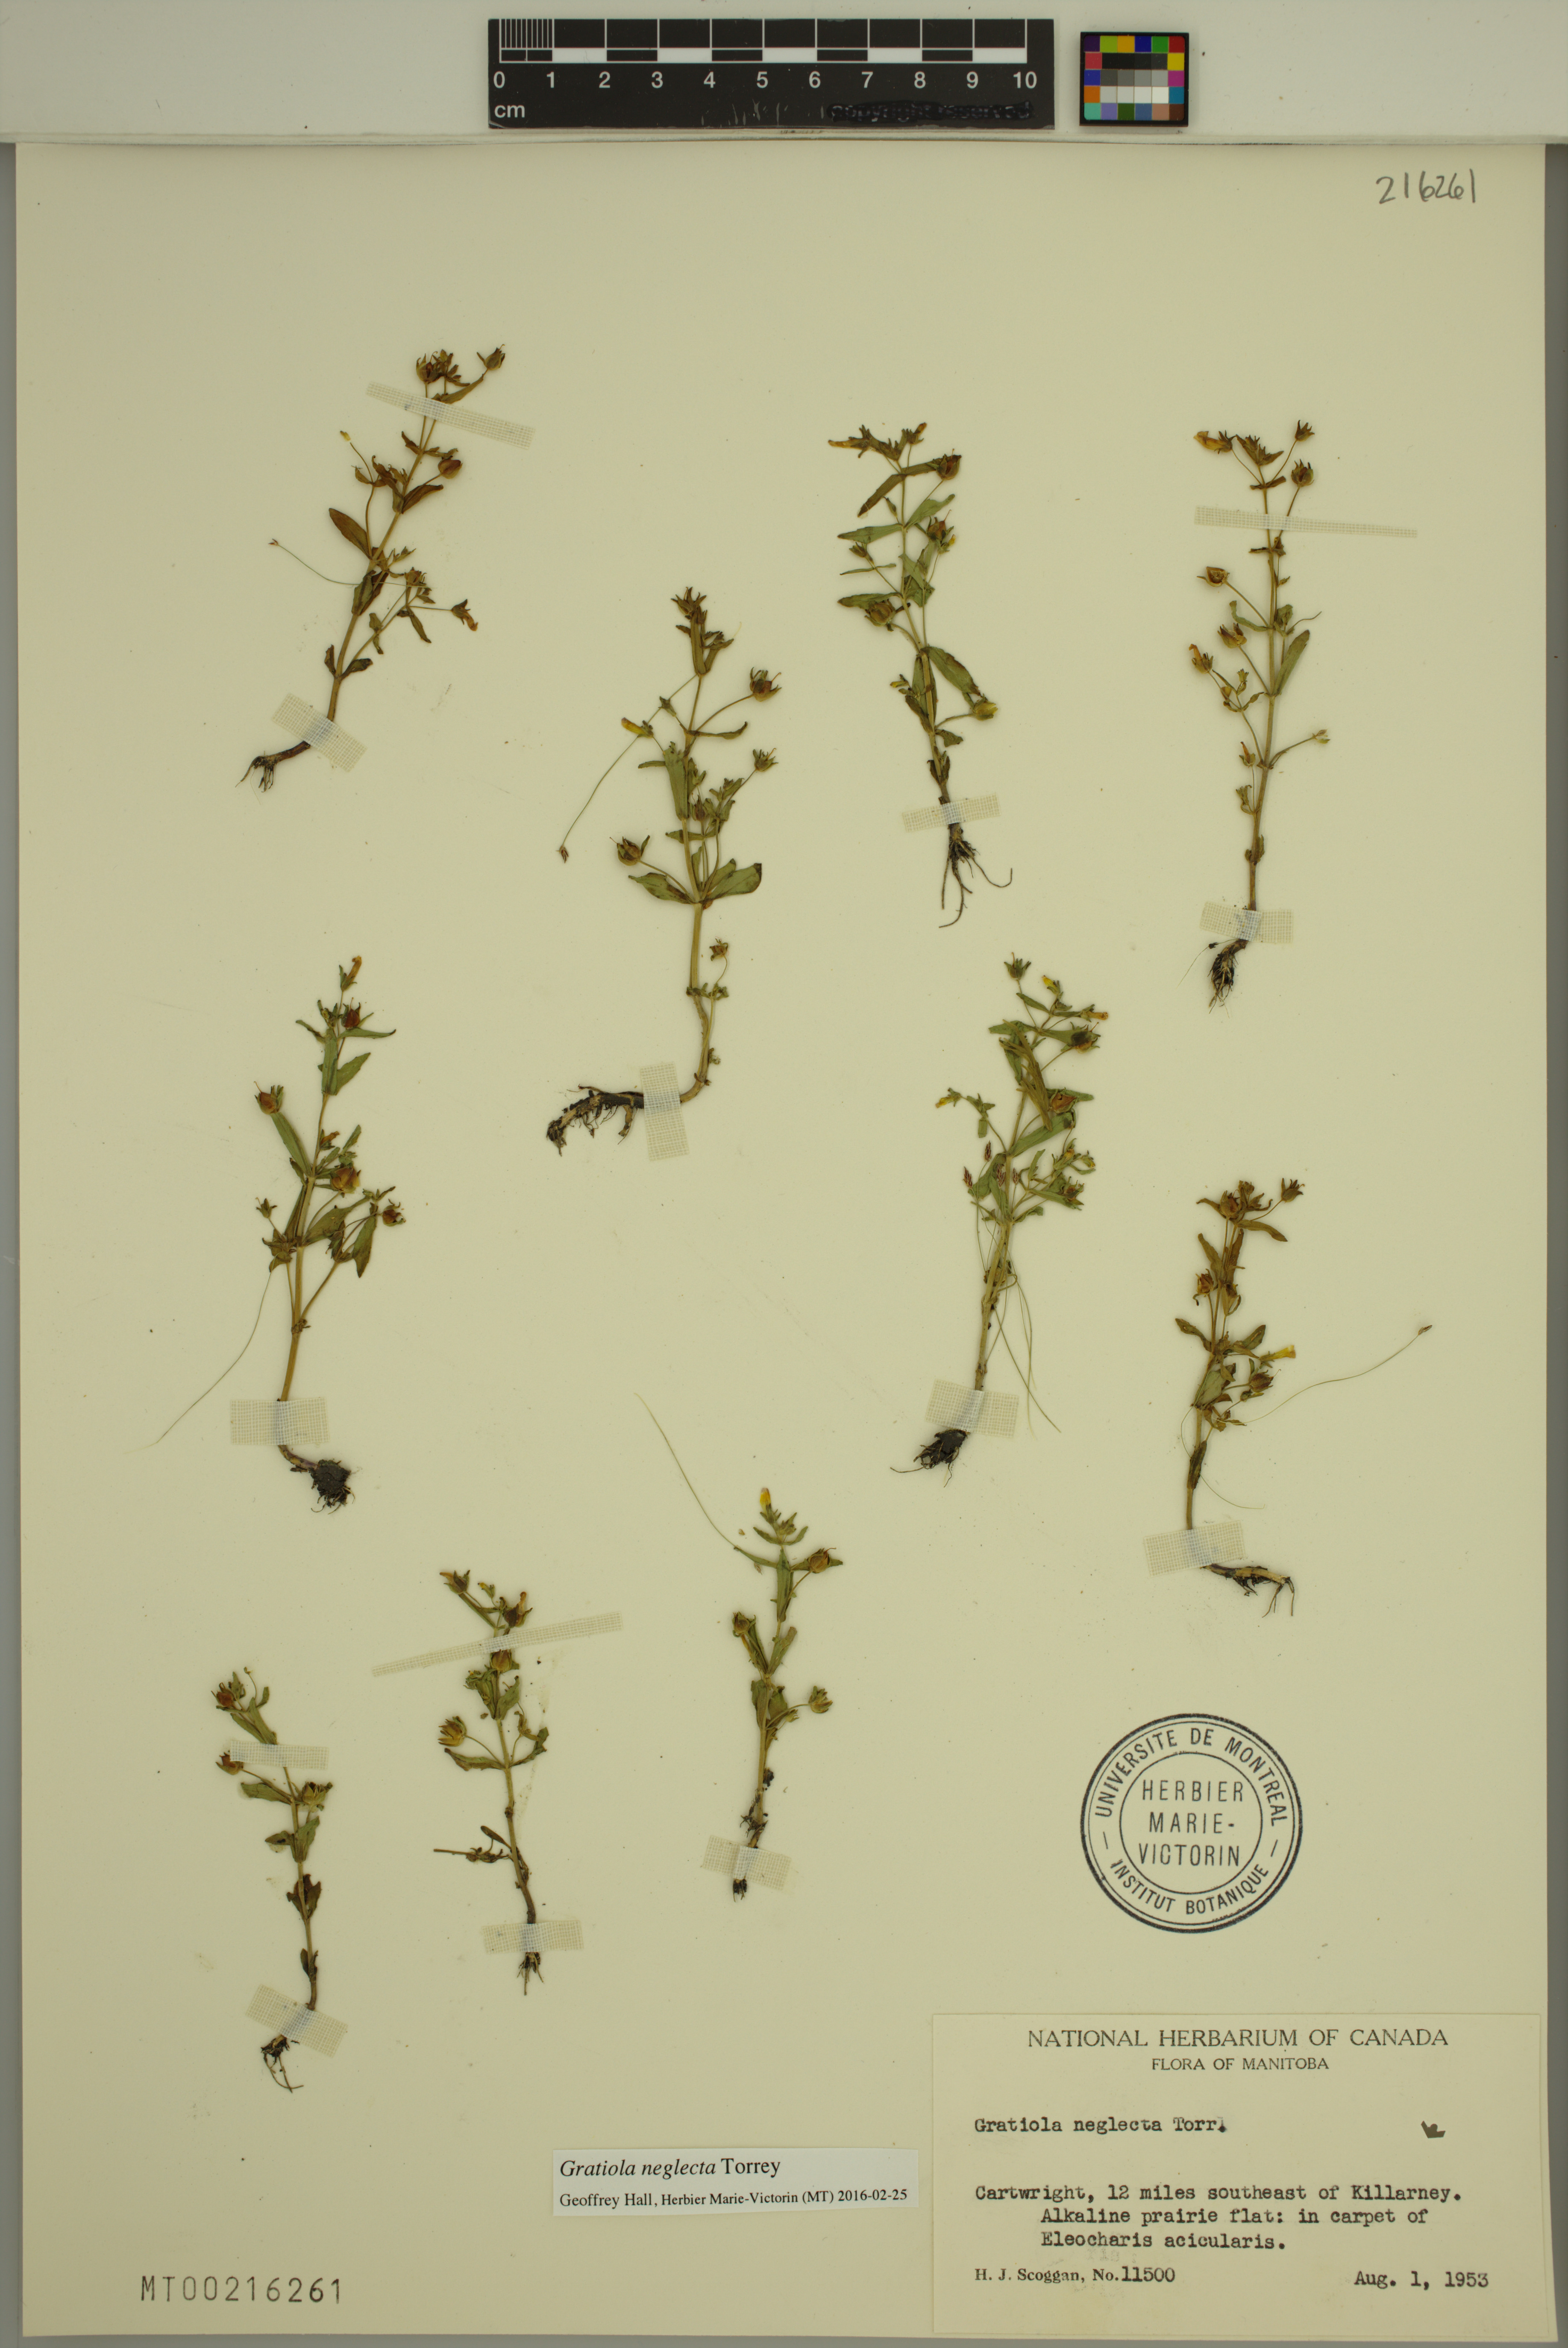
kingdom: Plantae
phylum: Tracheophyta
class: Magnoliopsida
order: Lamiales
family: Plantaginaceae
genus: Gratiola
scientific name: Gratiola neglecta
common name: American hedge-hyssop
